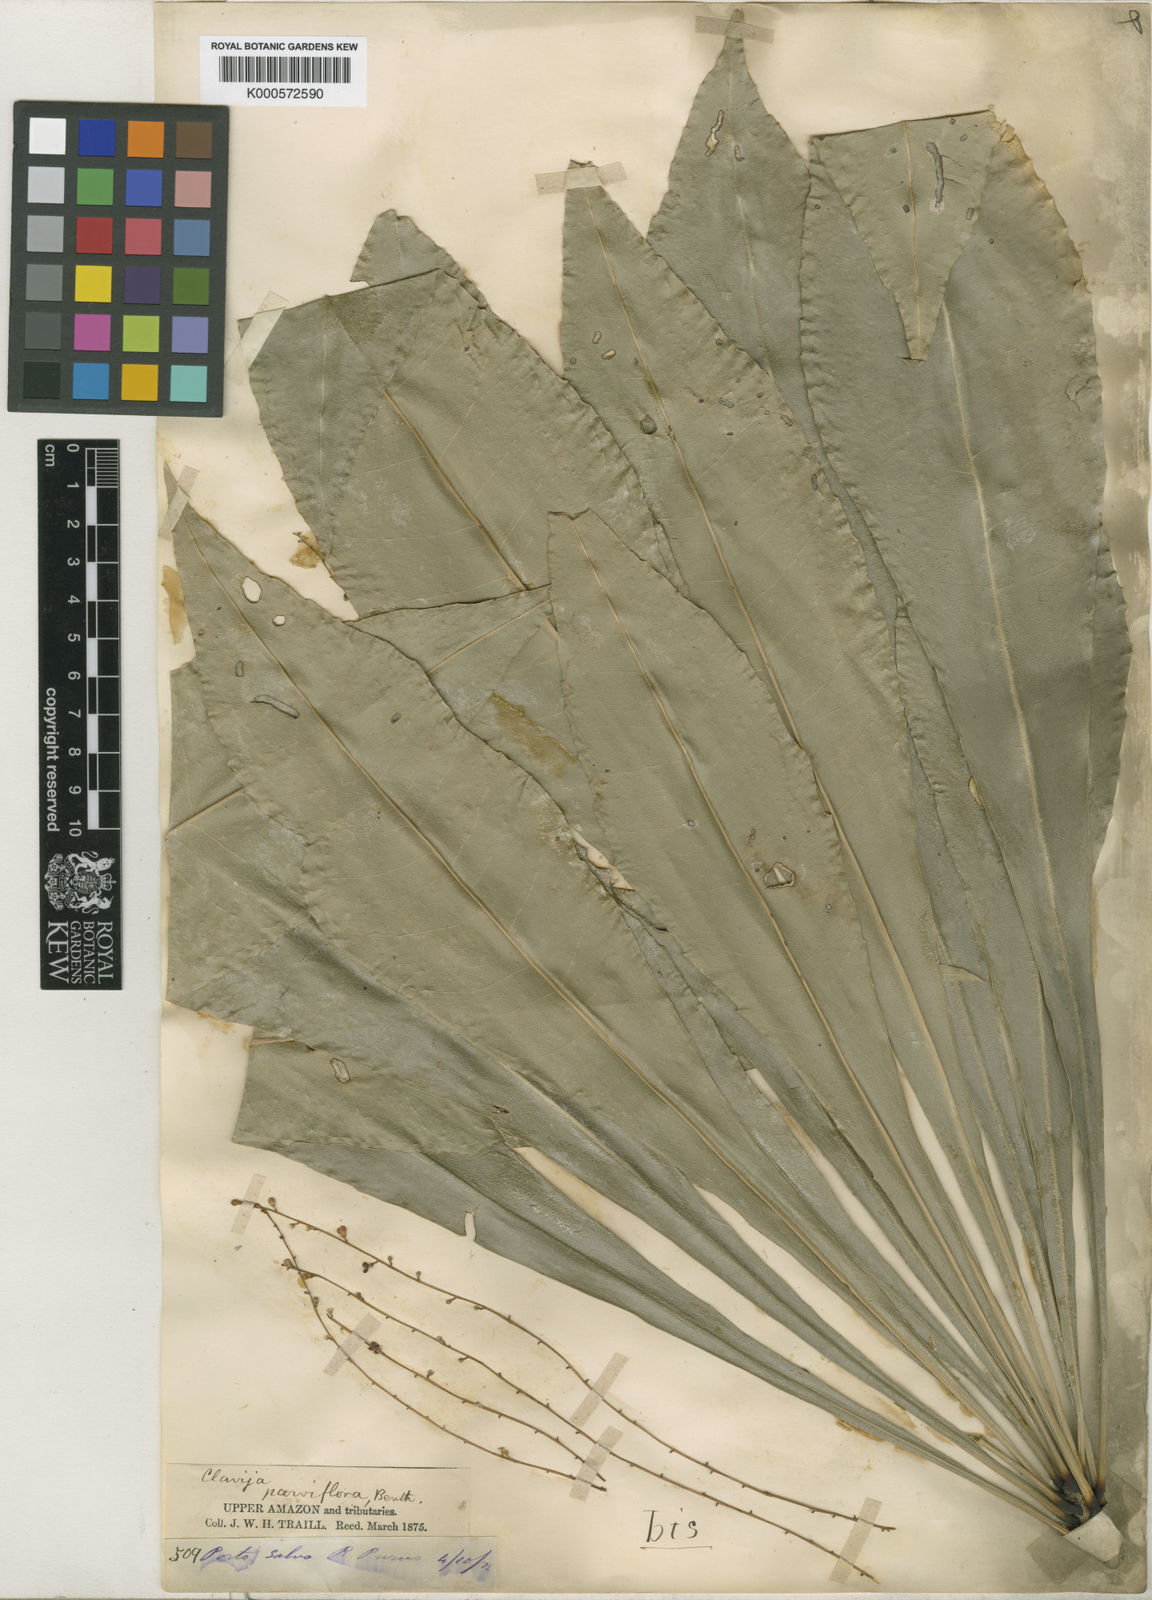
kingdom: Plantae
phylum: Tracheophyta
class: Magnoliopsida
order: Ericales
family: Primulaceae
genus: Clavija
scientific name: Clavija umbrosa
